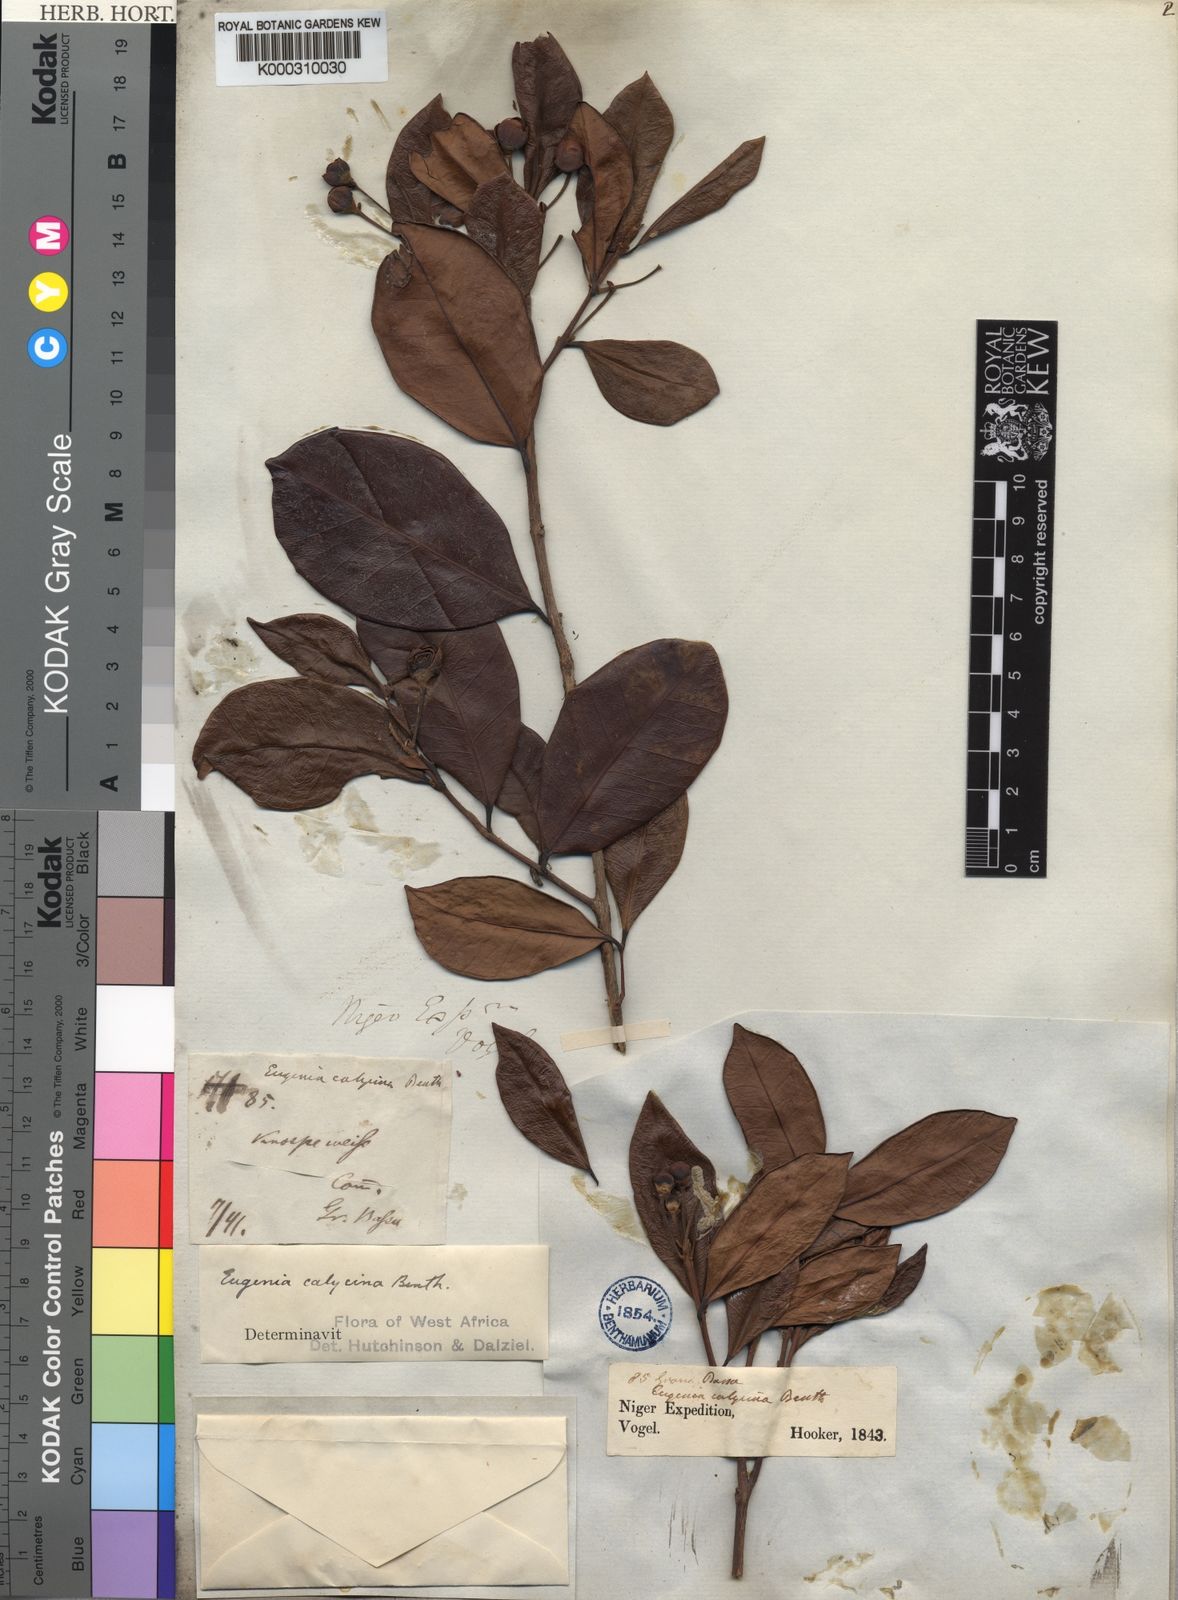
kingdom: Plantae
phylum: Tracheophyta
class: Magnoliopsida
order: Myrtales
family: Myrtaceae
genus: Eugenia
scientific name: Eugenia liberiana
